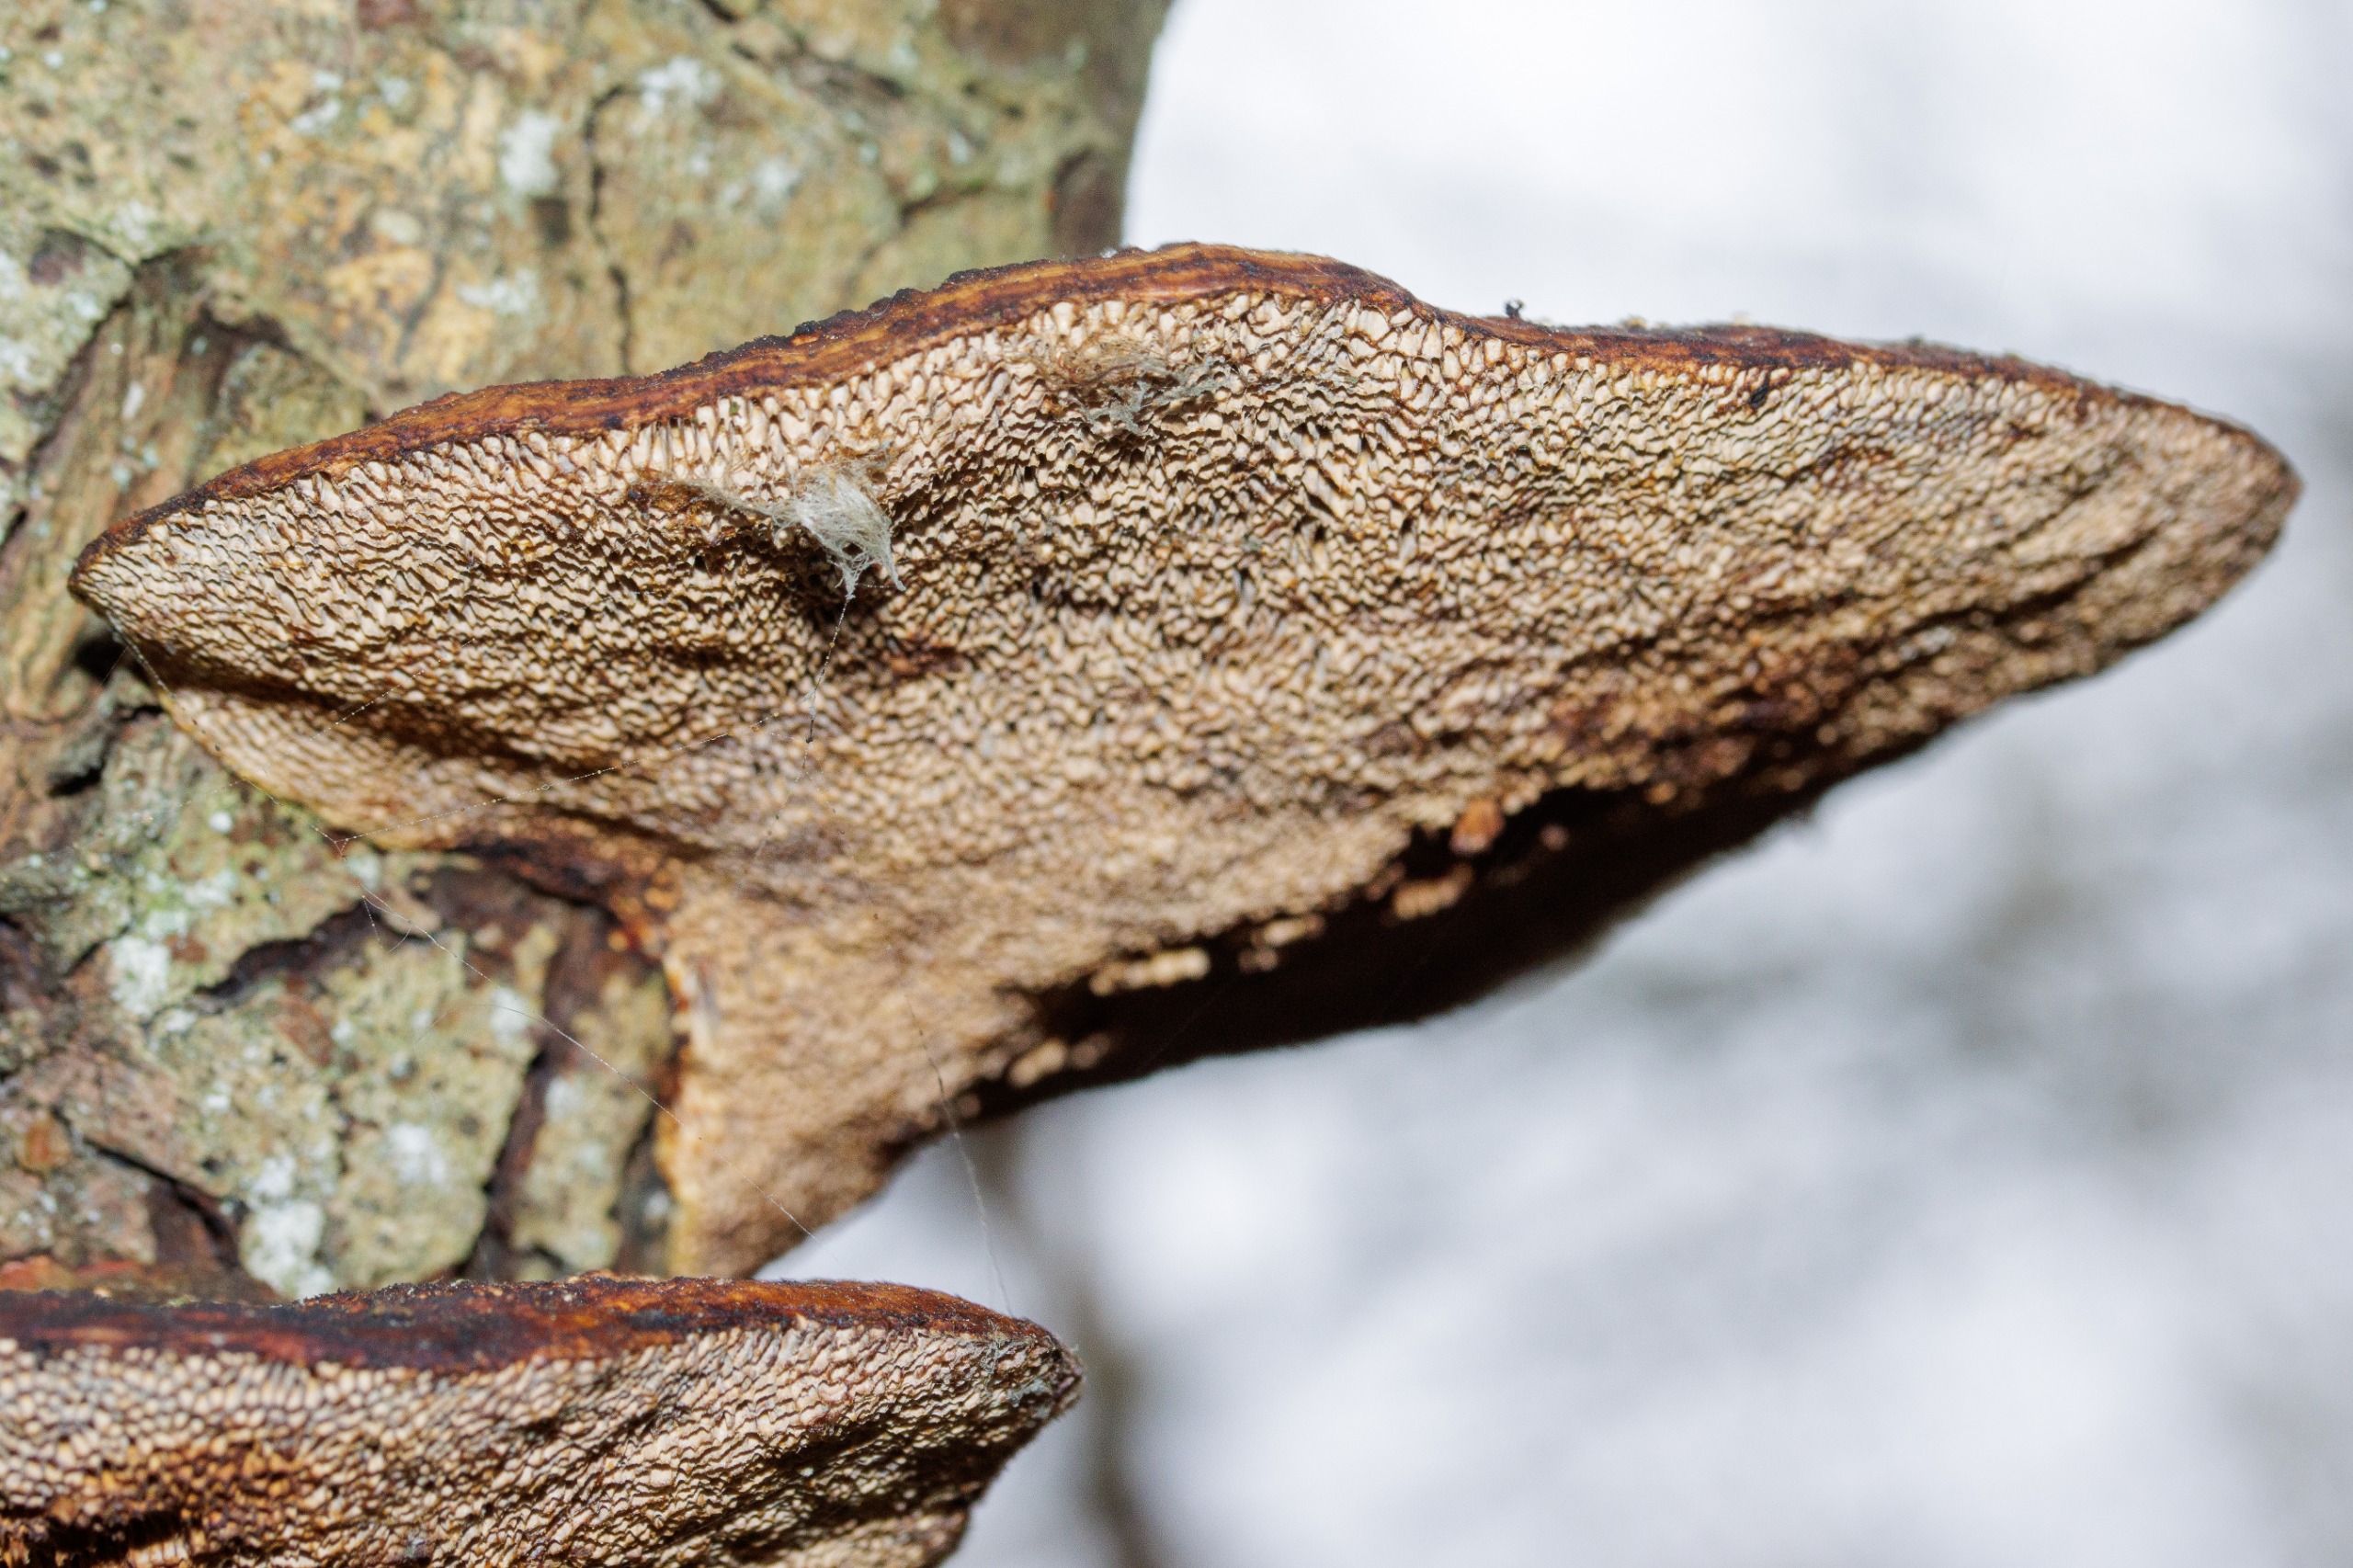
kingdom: Fungi
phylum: Basidiomycota
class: Agaricomycetes
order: Polyporales
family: Polyporaceae
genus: Daedaleopsis
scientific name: Daedaleopsis confragosa
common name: Rødmende læderporesvamp
